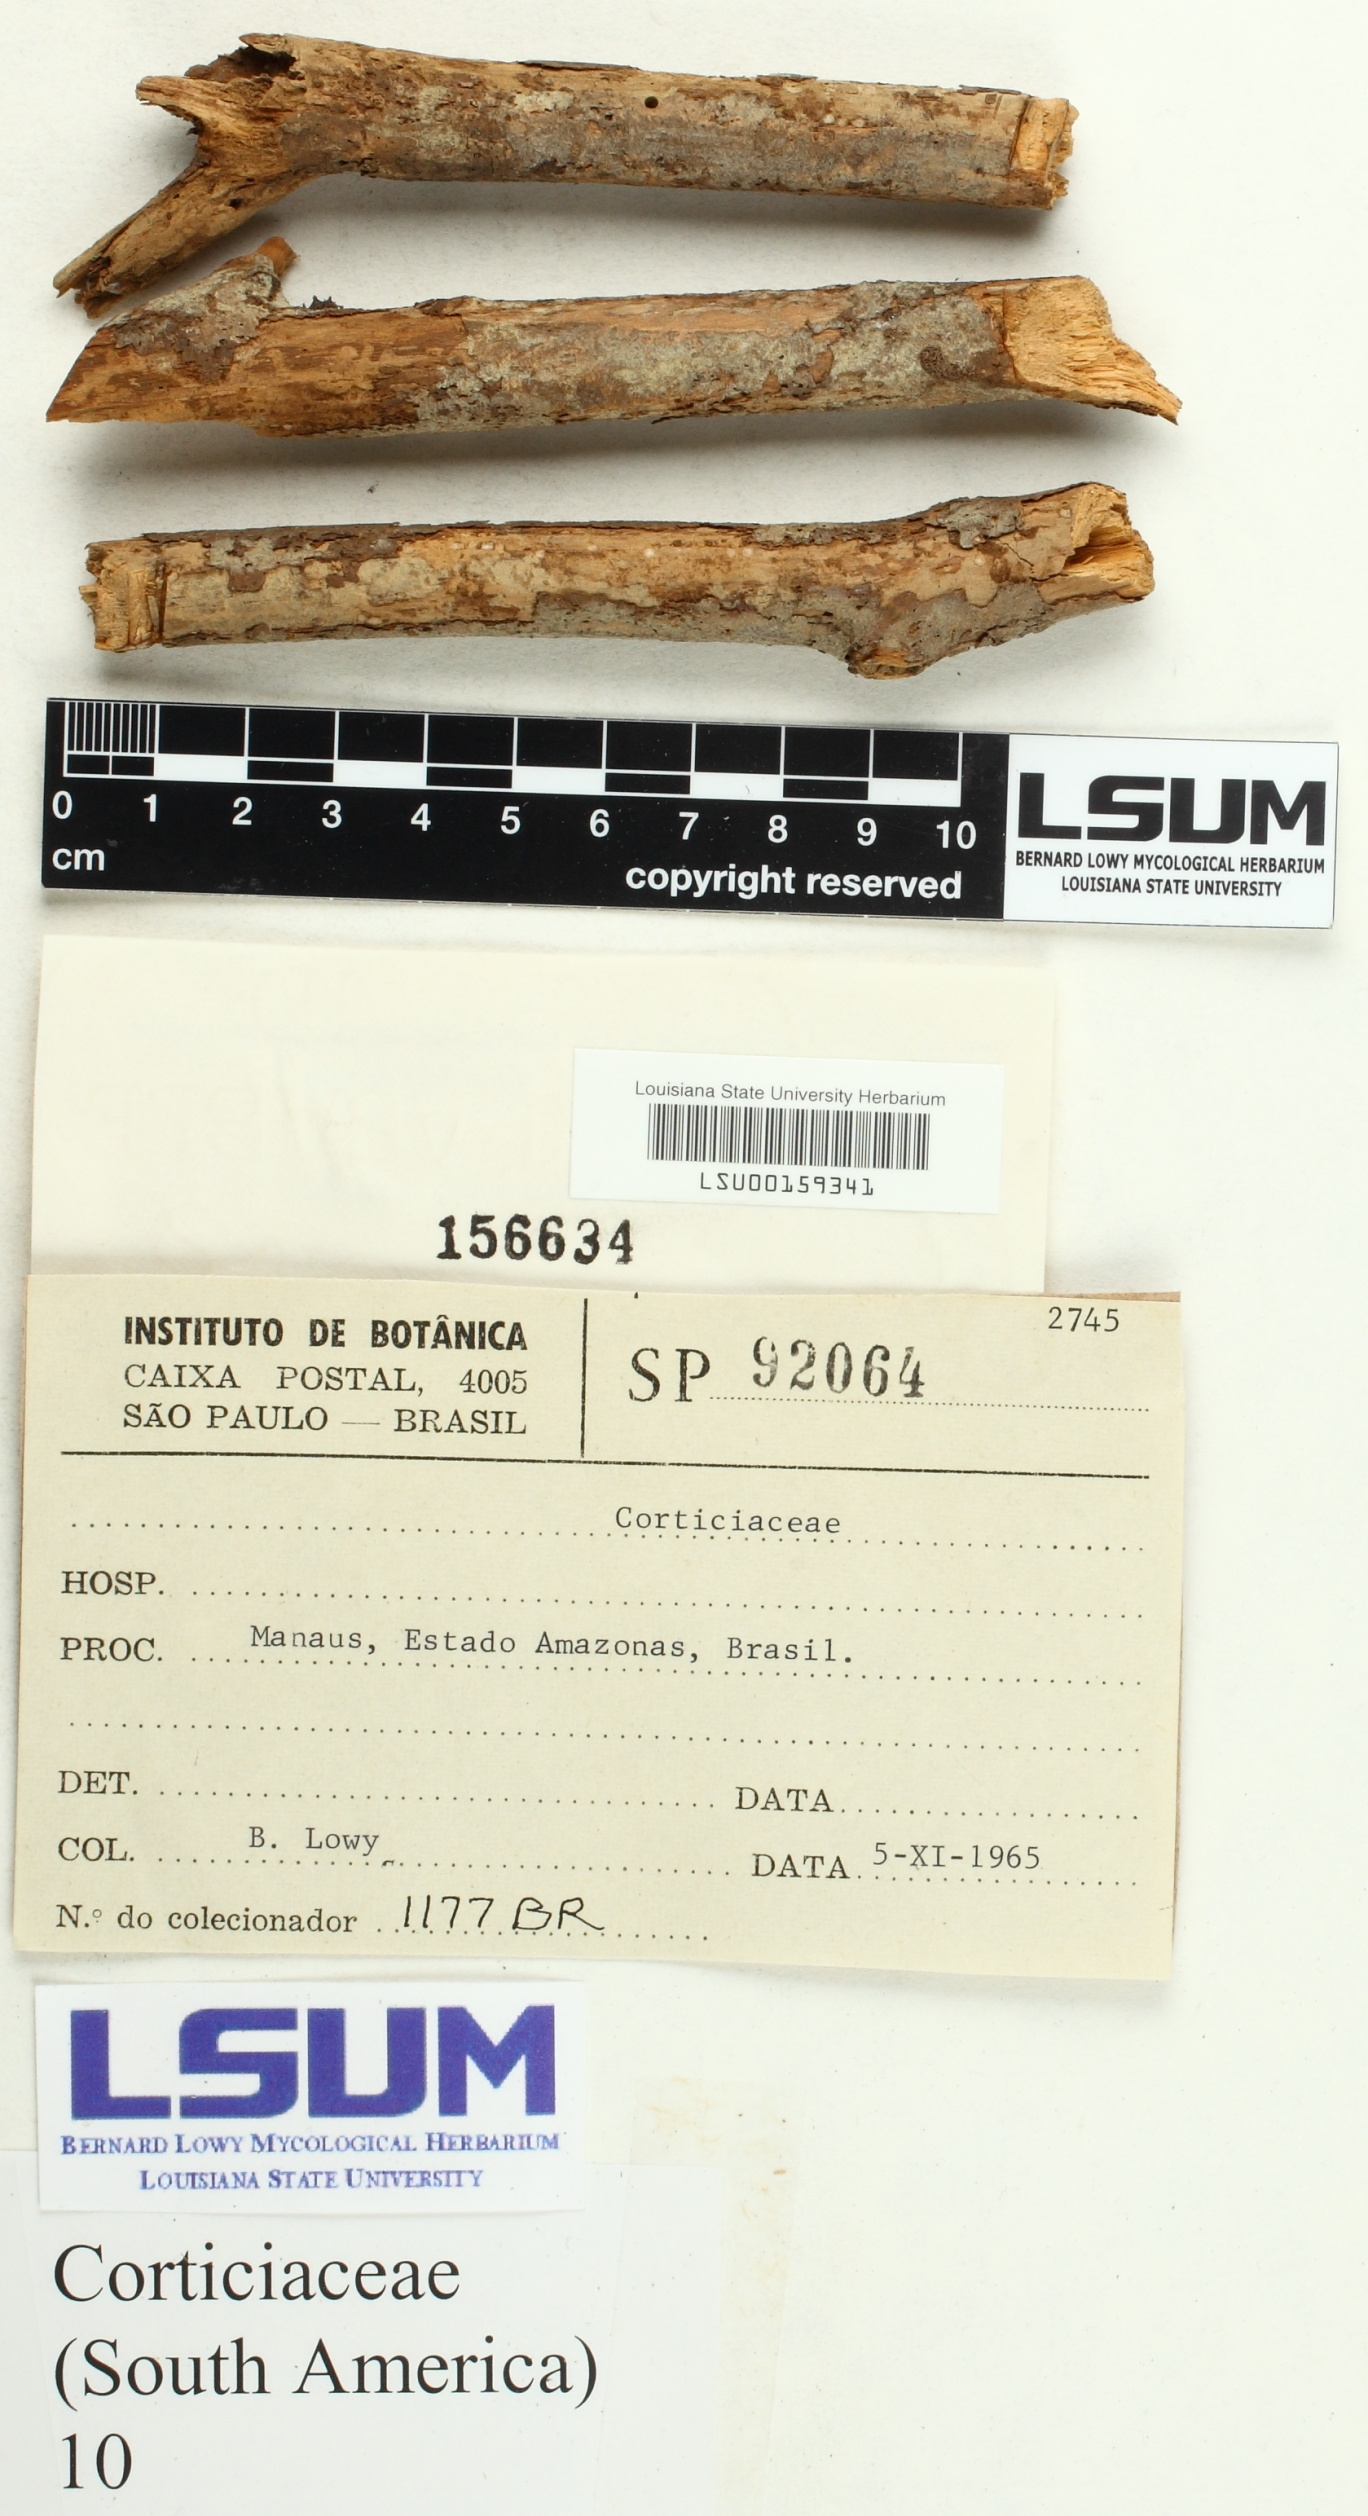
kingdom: Fungi
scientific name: Fungi
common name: Fungi
